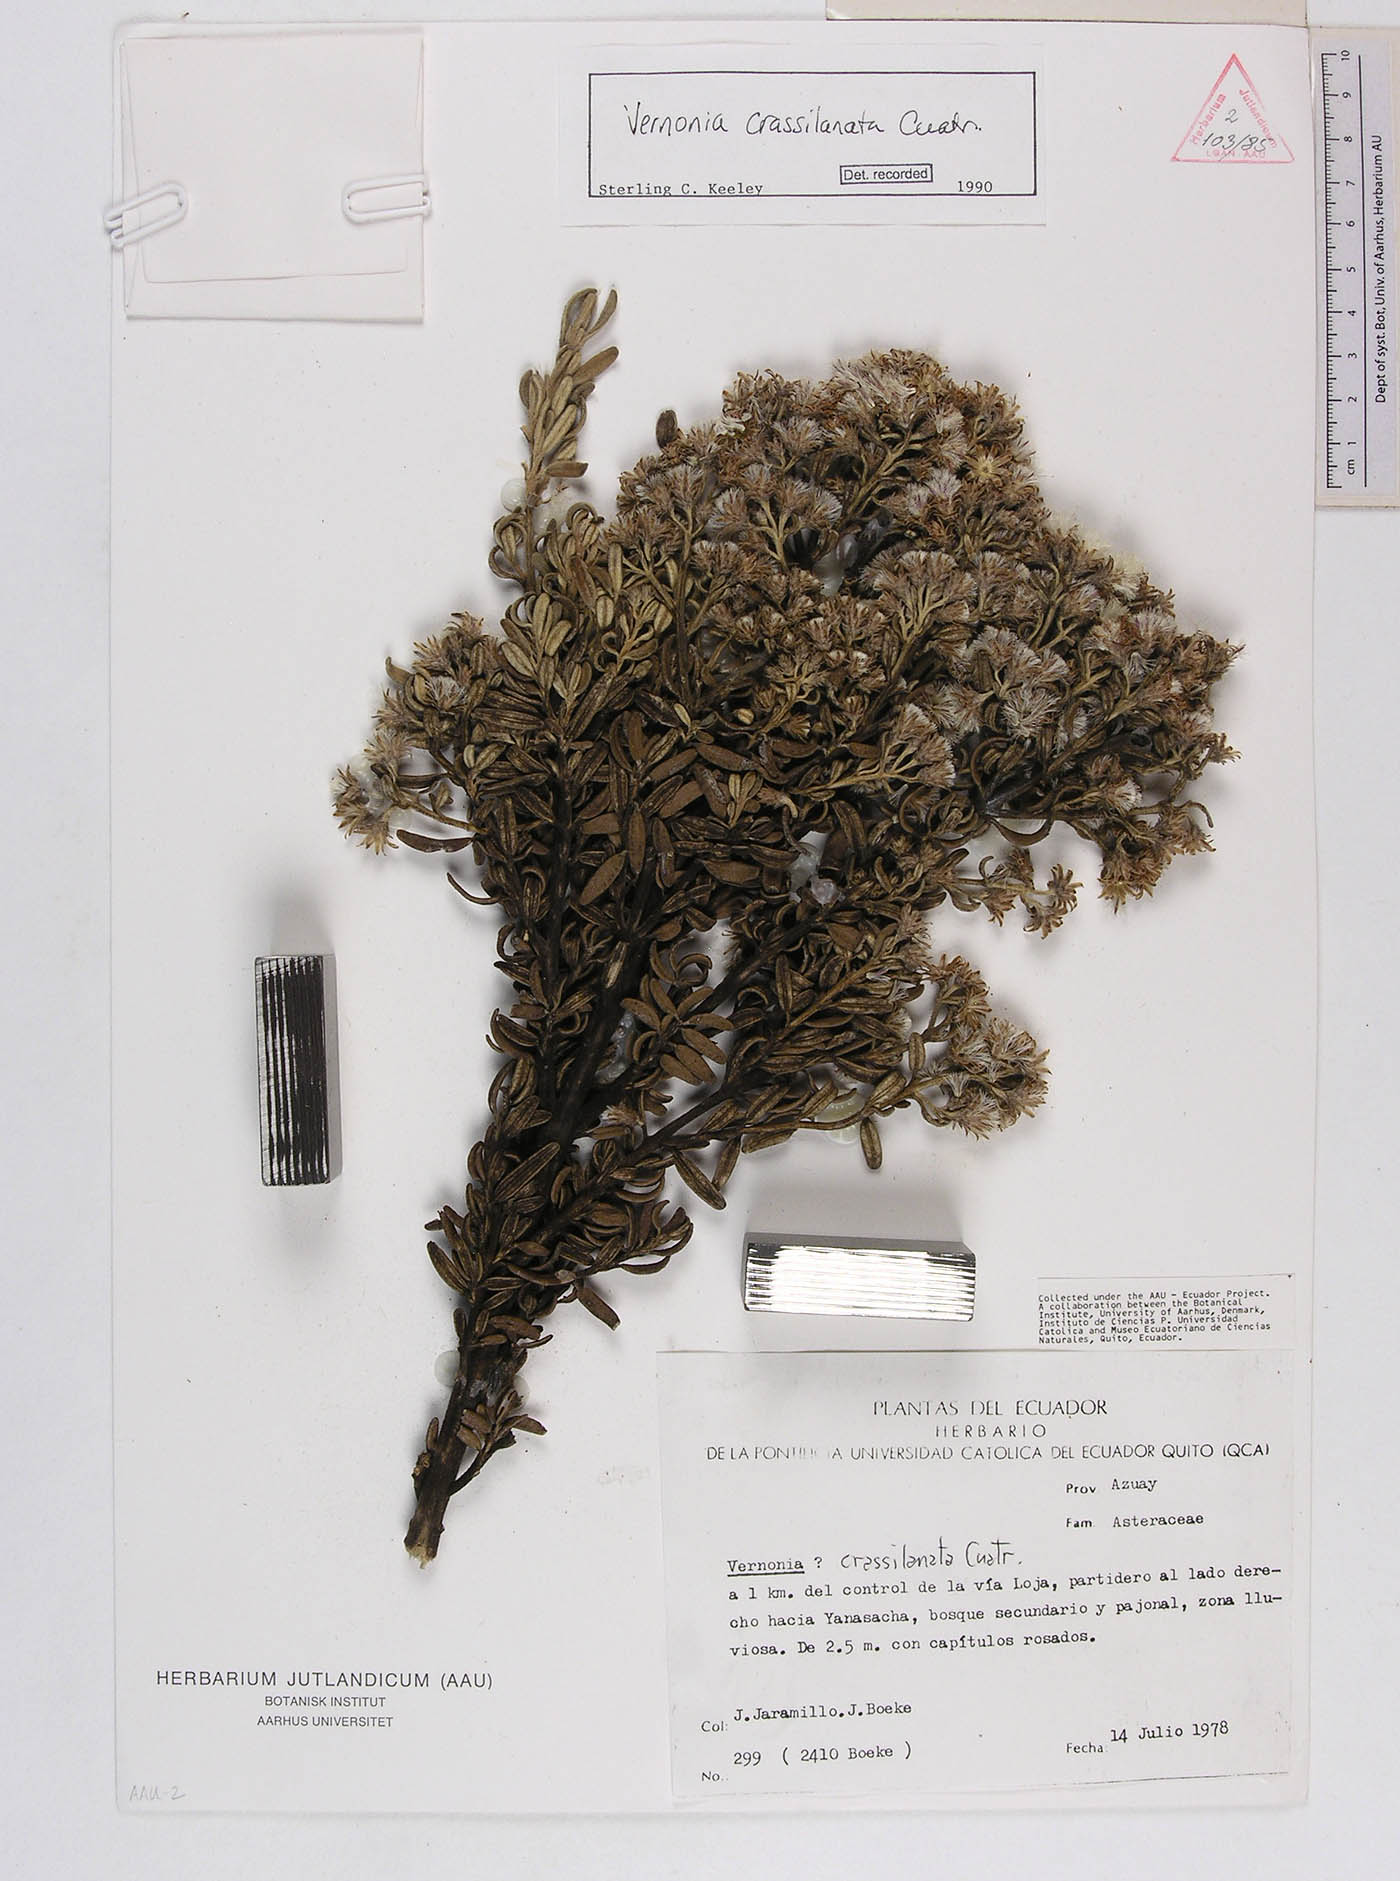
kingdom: Plantae
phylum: Tracheophyta
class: Magnoliopsida
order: Asterales
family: Asteraceae
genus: Joseanthus
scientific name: Joseanthus cuatrecasasii
